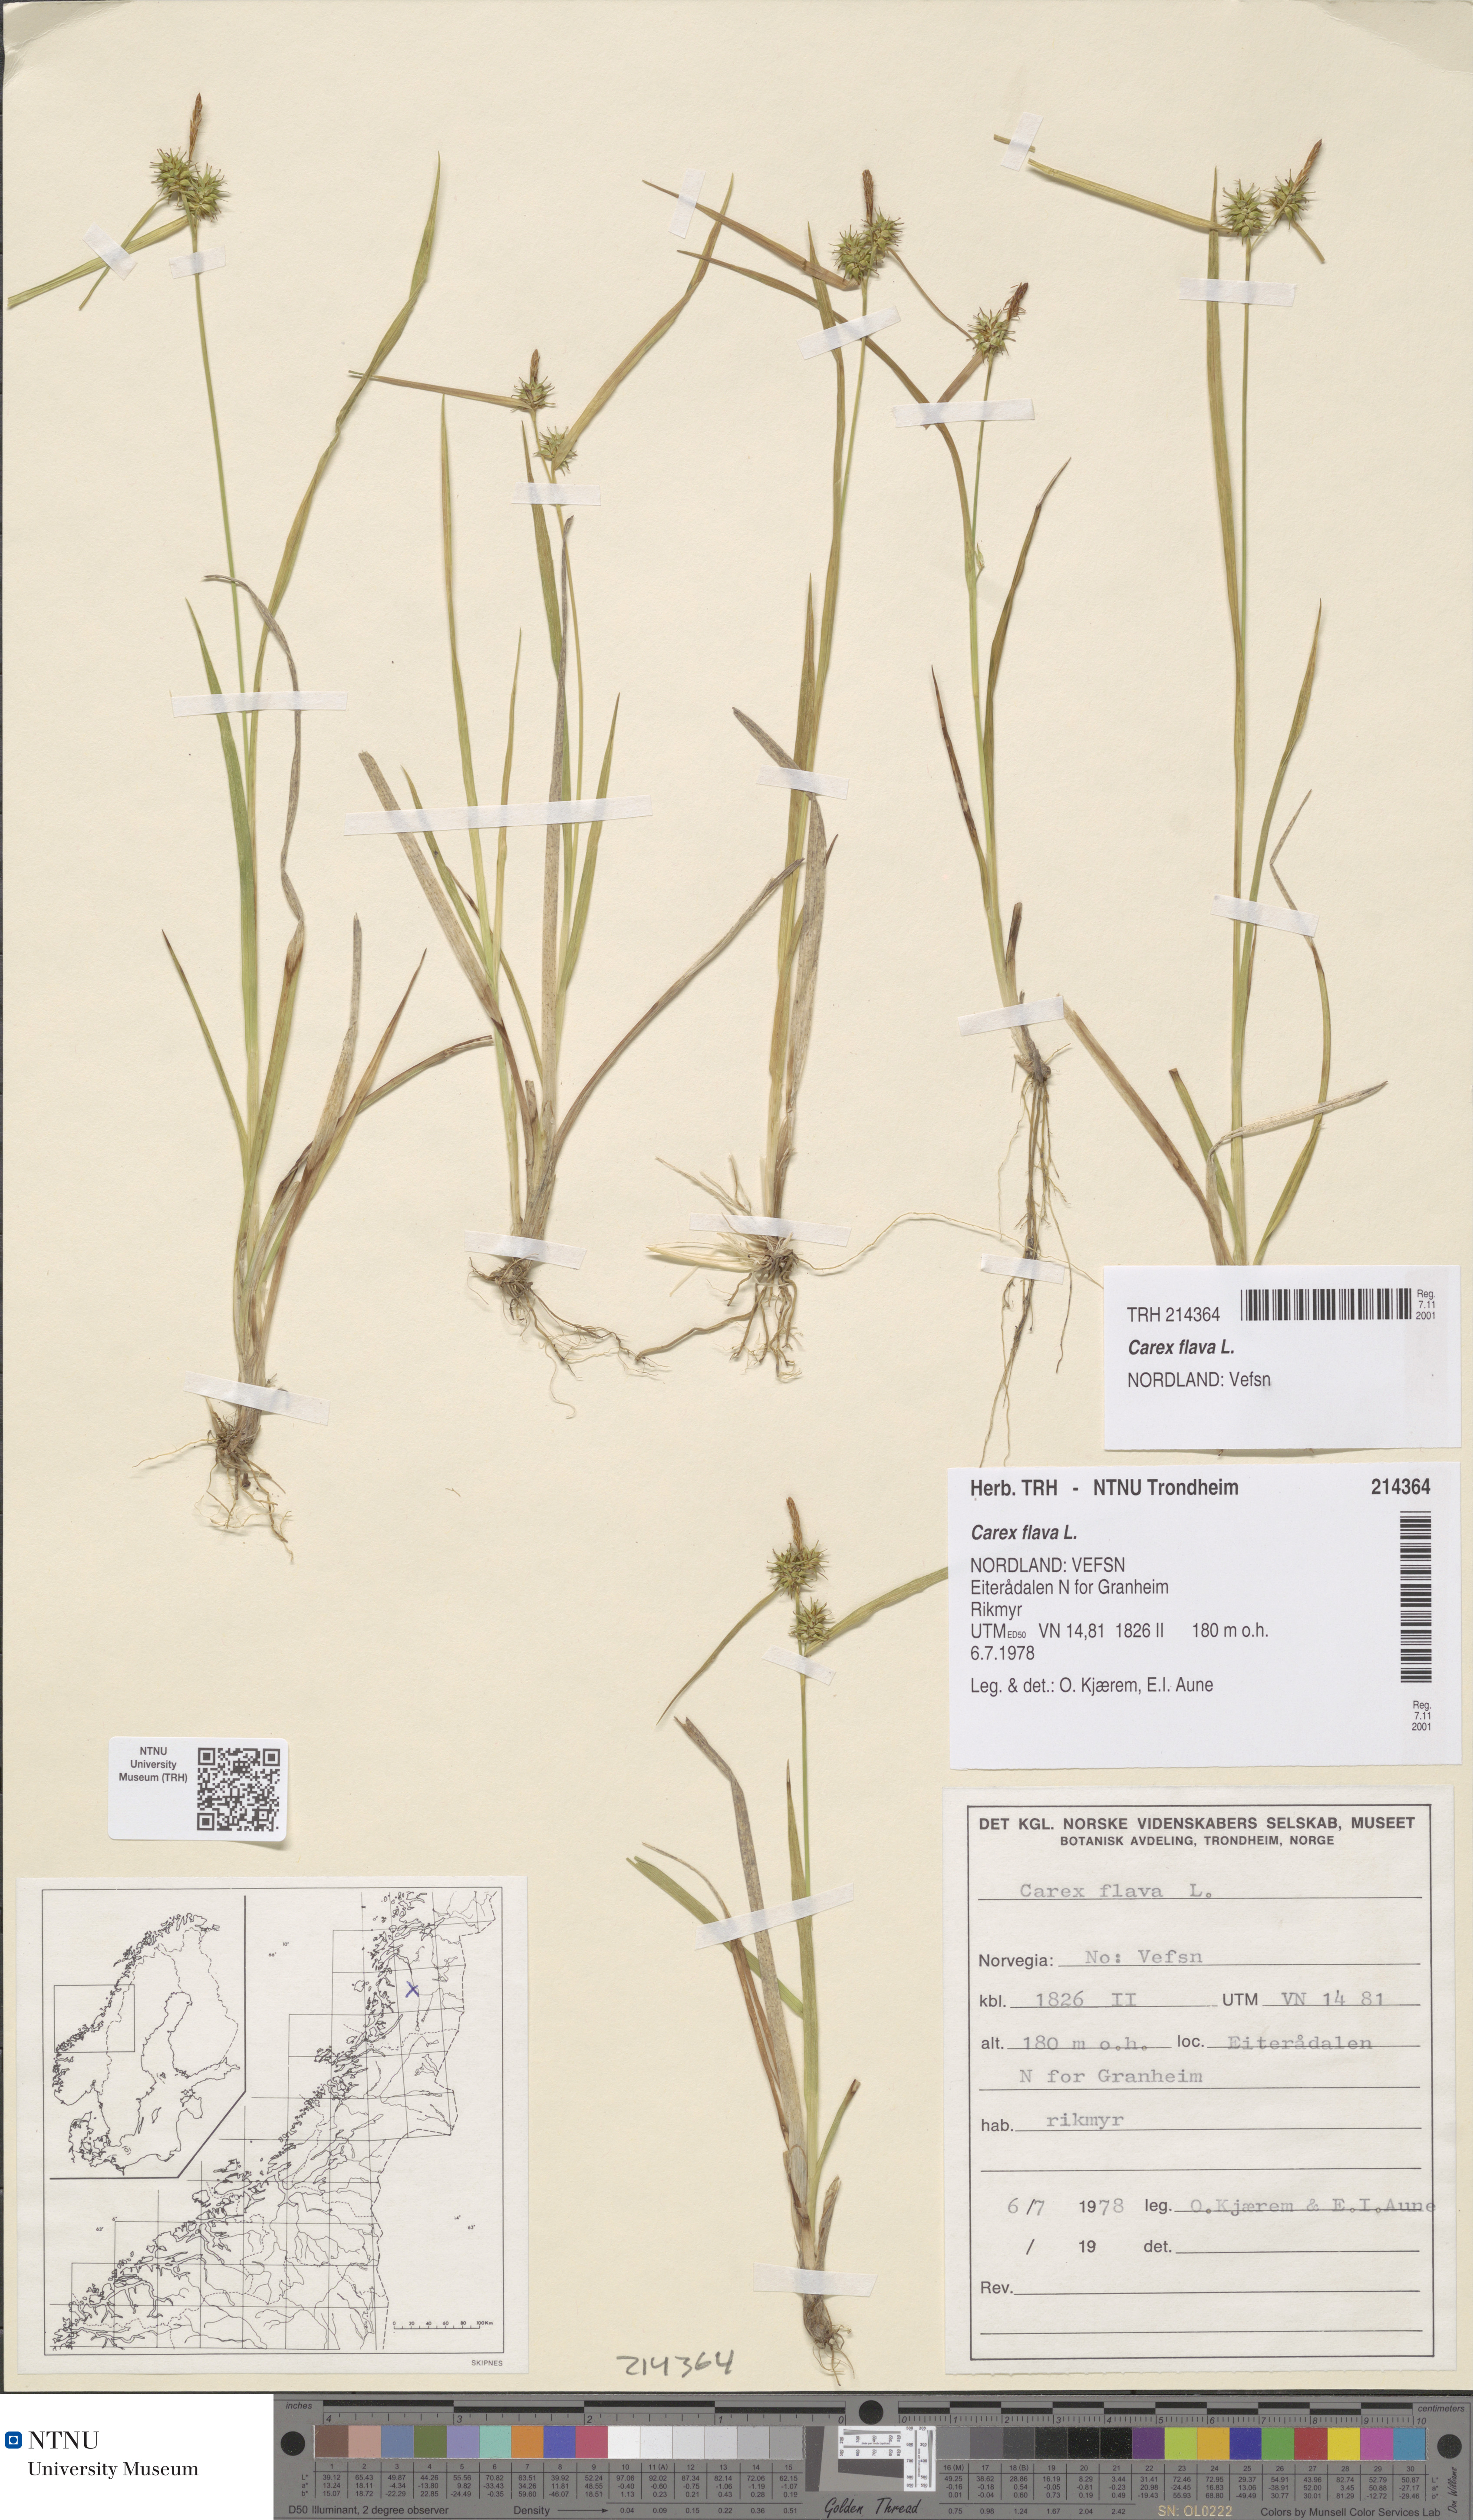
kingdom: Plantae
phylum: Tracheophyta
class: Liliopsida
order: Poales
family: Cyperaceae
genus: Carex
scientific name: Carex flava
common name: Large yellow-sedge
